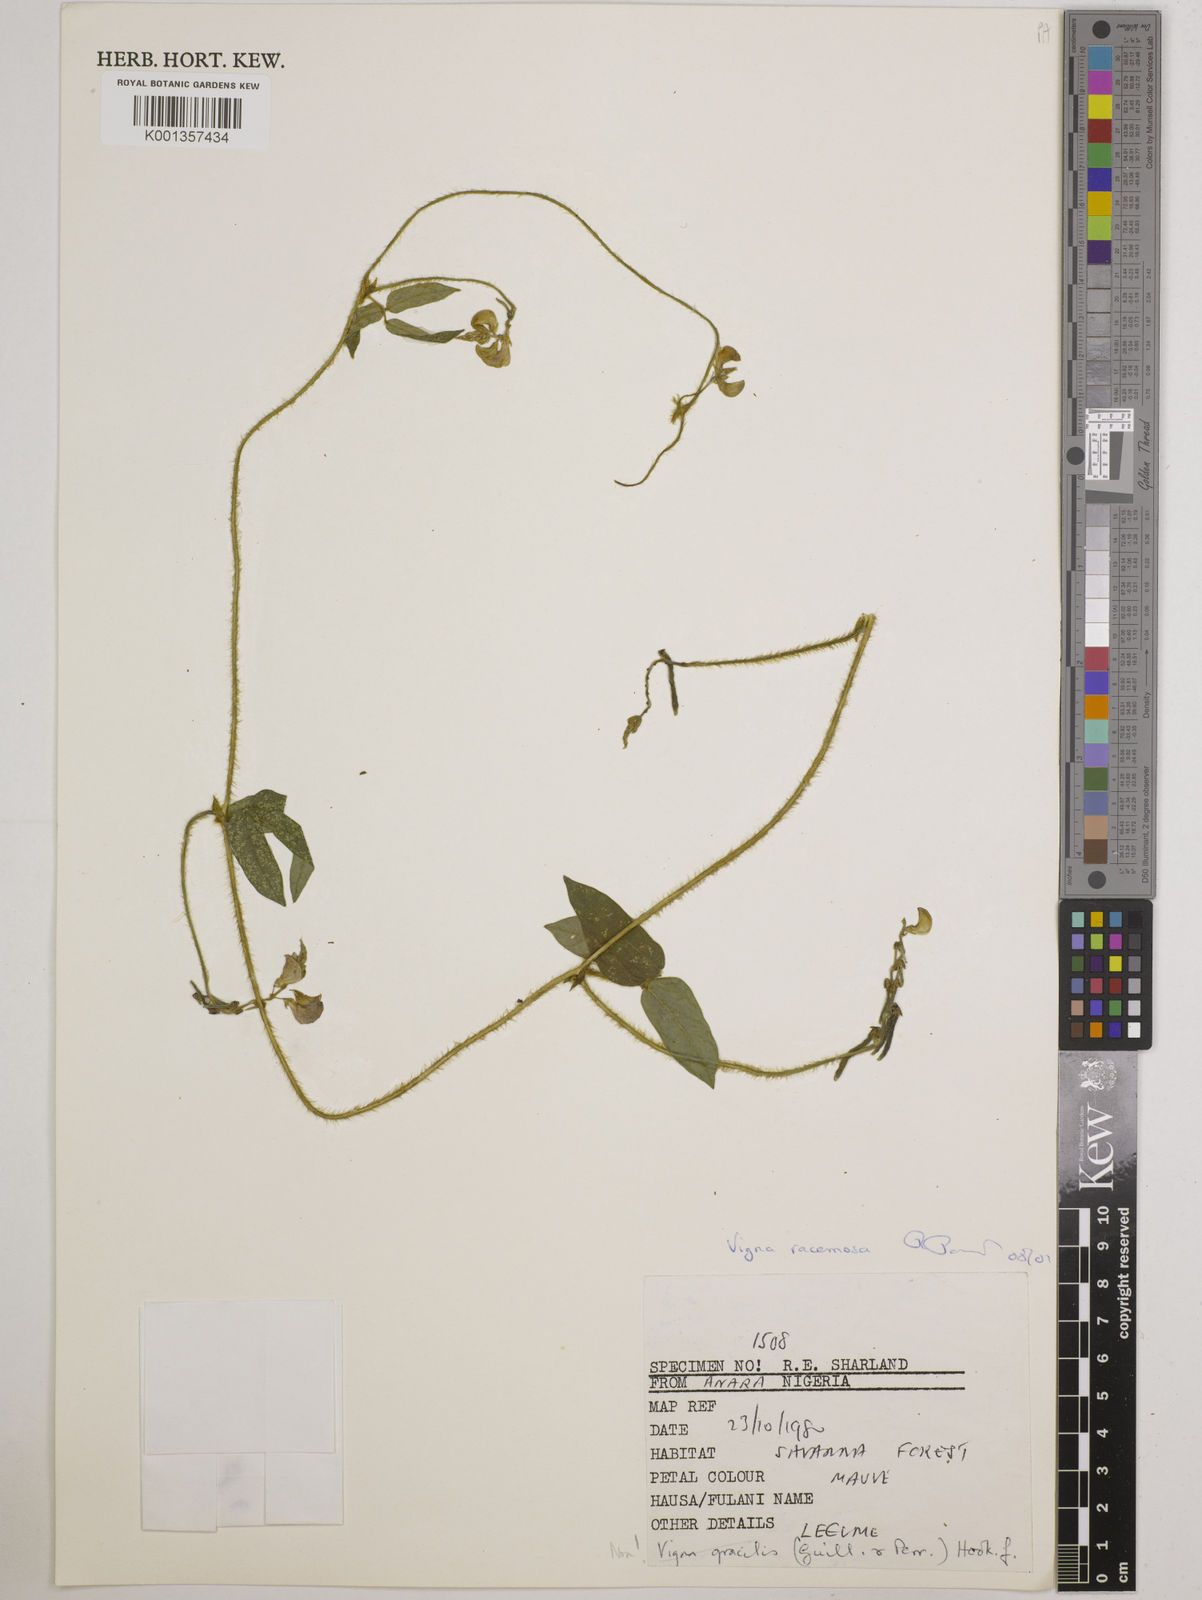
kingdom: Plantae
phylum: Tracheophyta
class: Magnoliopsida
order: Fabales
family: Fabaceae
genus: Vigna
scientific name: Vigna gracilis
